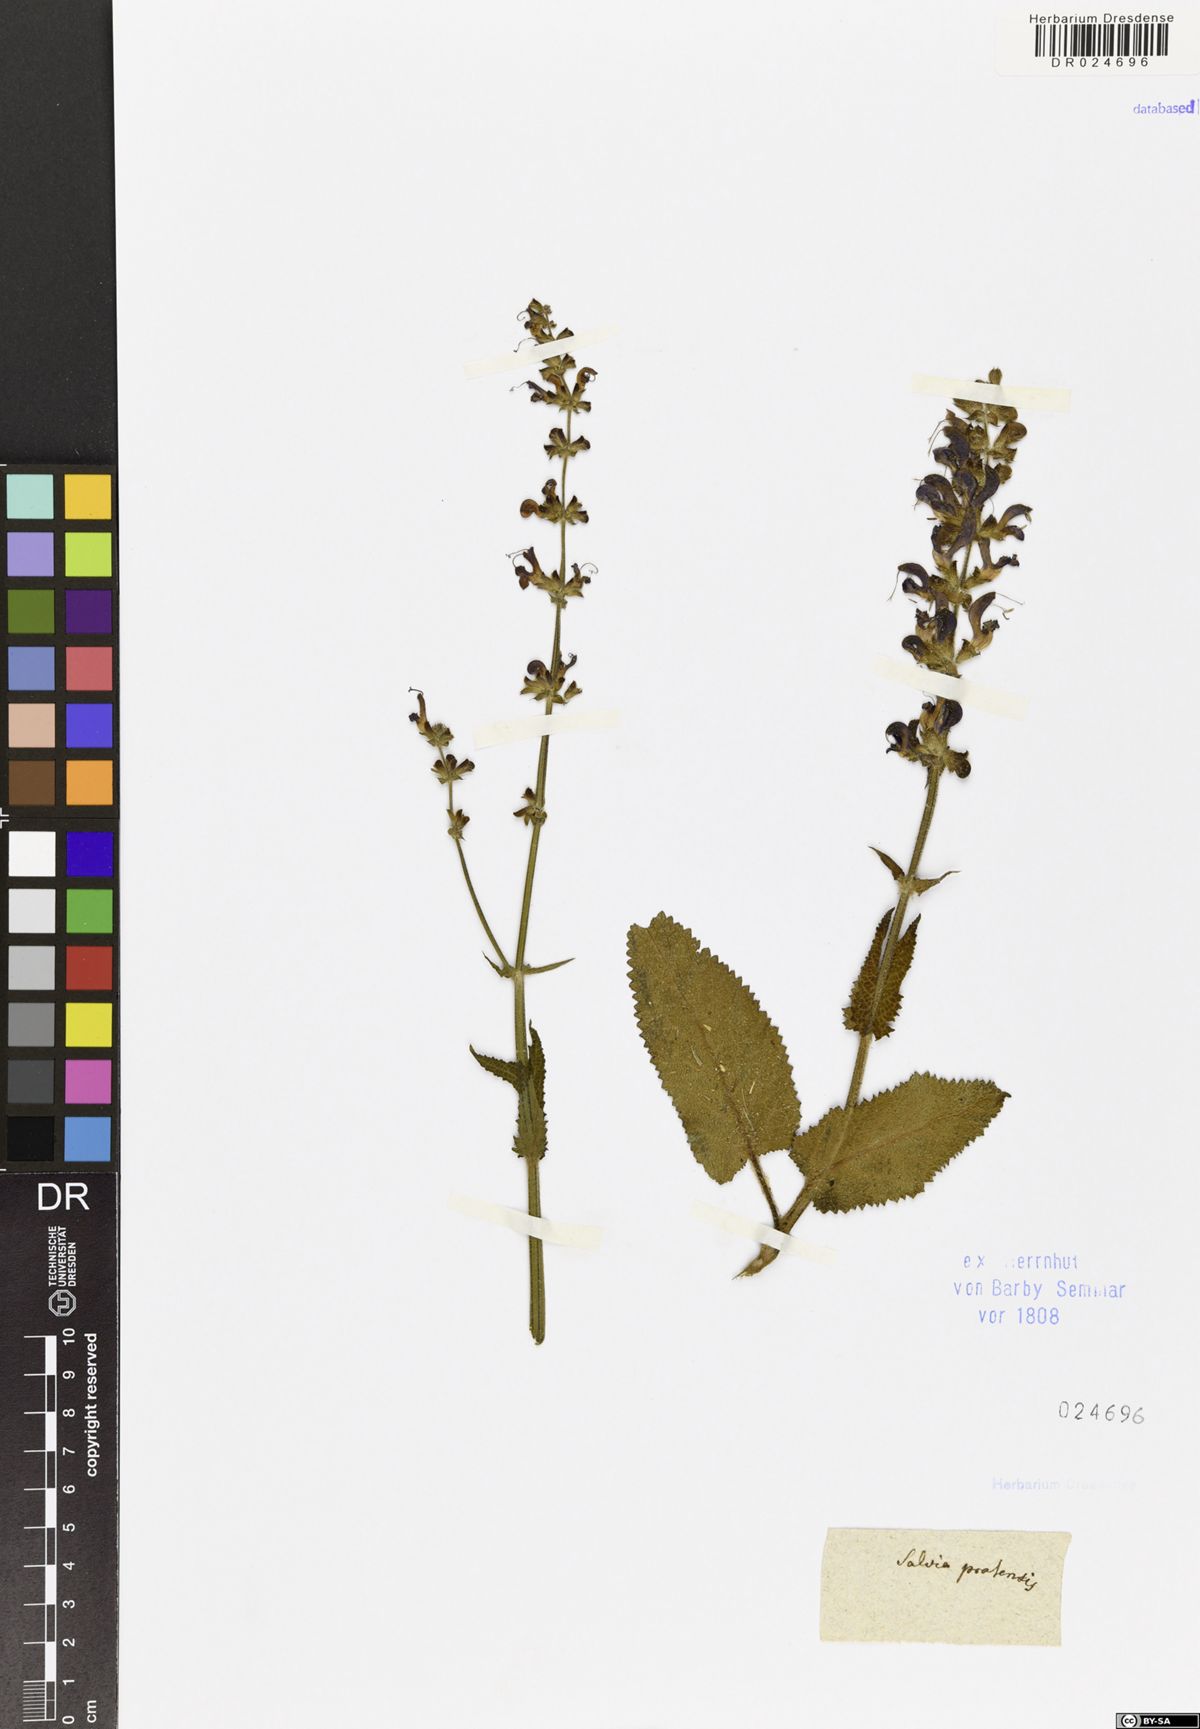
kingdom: Plantae
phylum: Tracheophyta
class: Magnoliopsida
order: Lamiales
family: Lamiaceae
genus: Salvia
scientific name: Salvia pratensis
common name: Meadow sage
